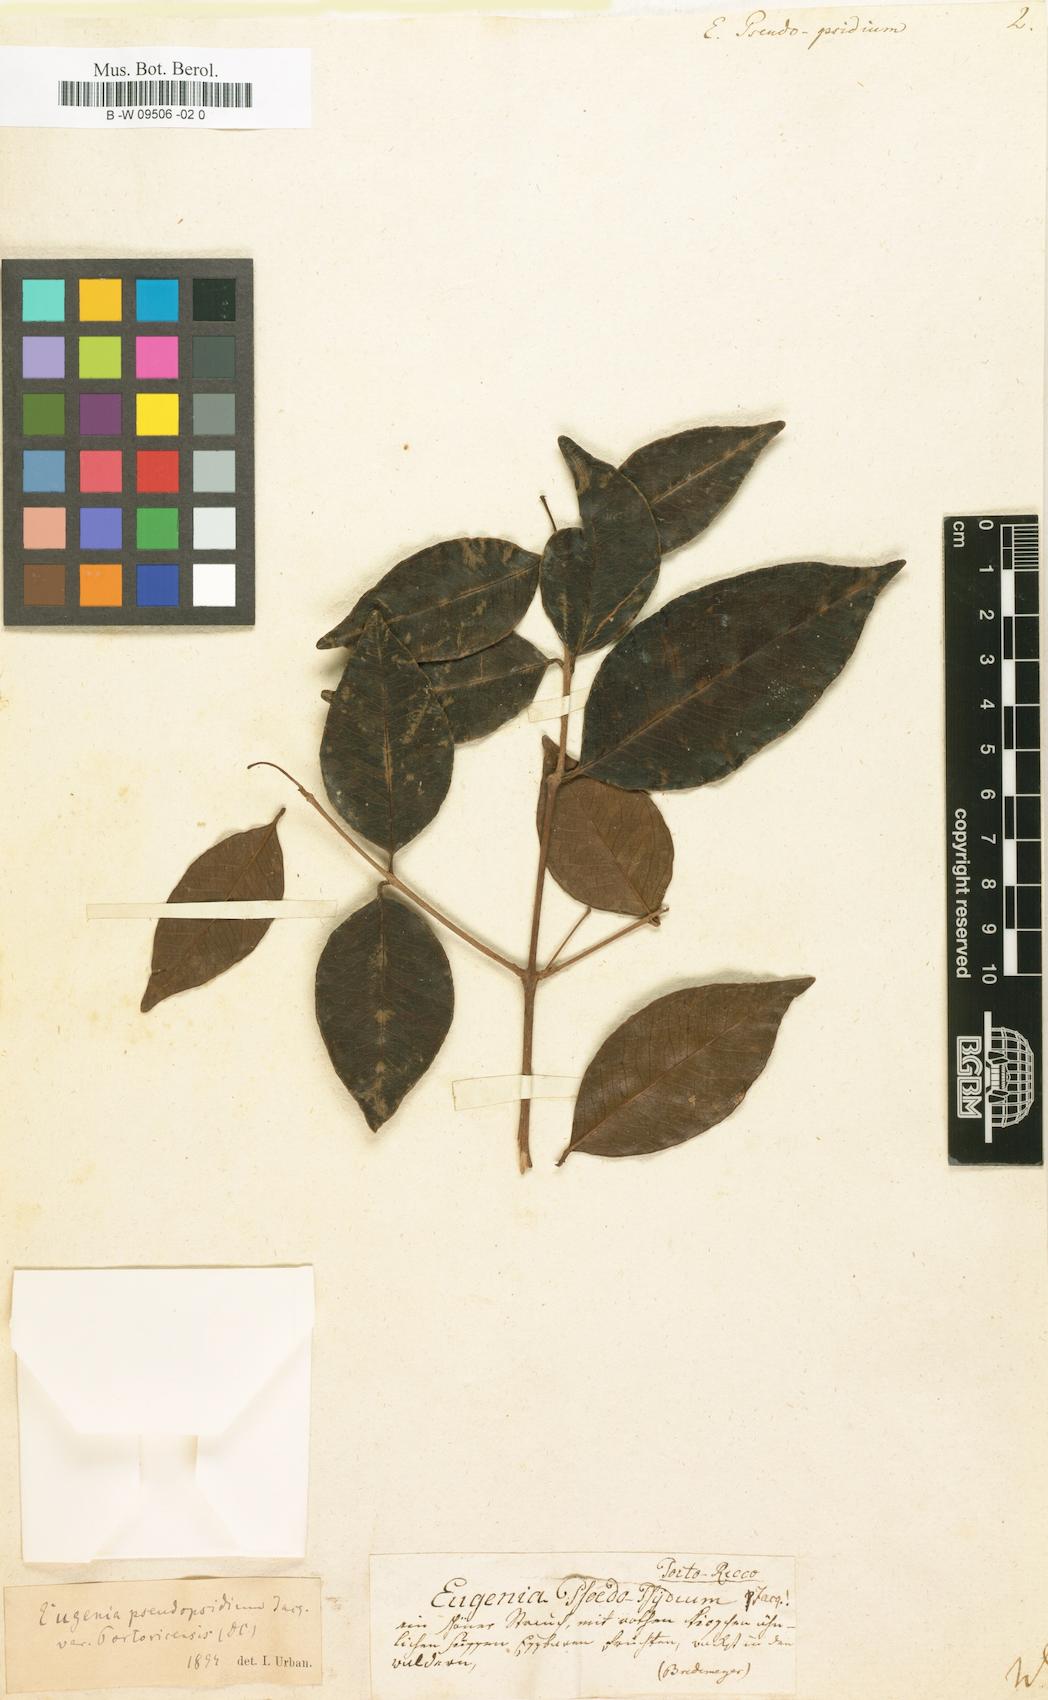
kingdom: Plantae
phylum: Tracheophyta
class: Magnoliopsida
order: Myrtales
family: Myrtaceae
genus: Eugenia
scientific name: Eugenia pseudopsidium
